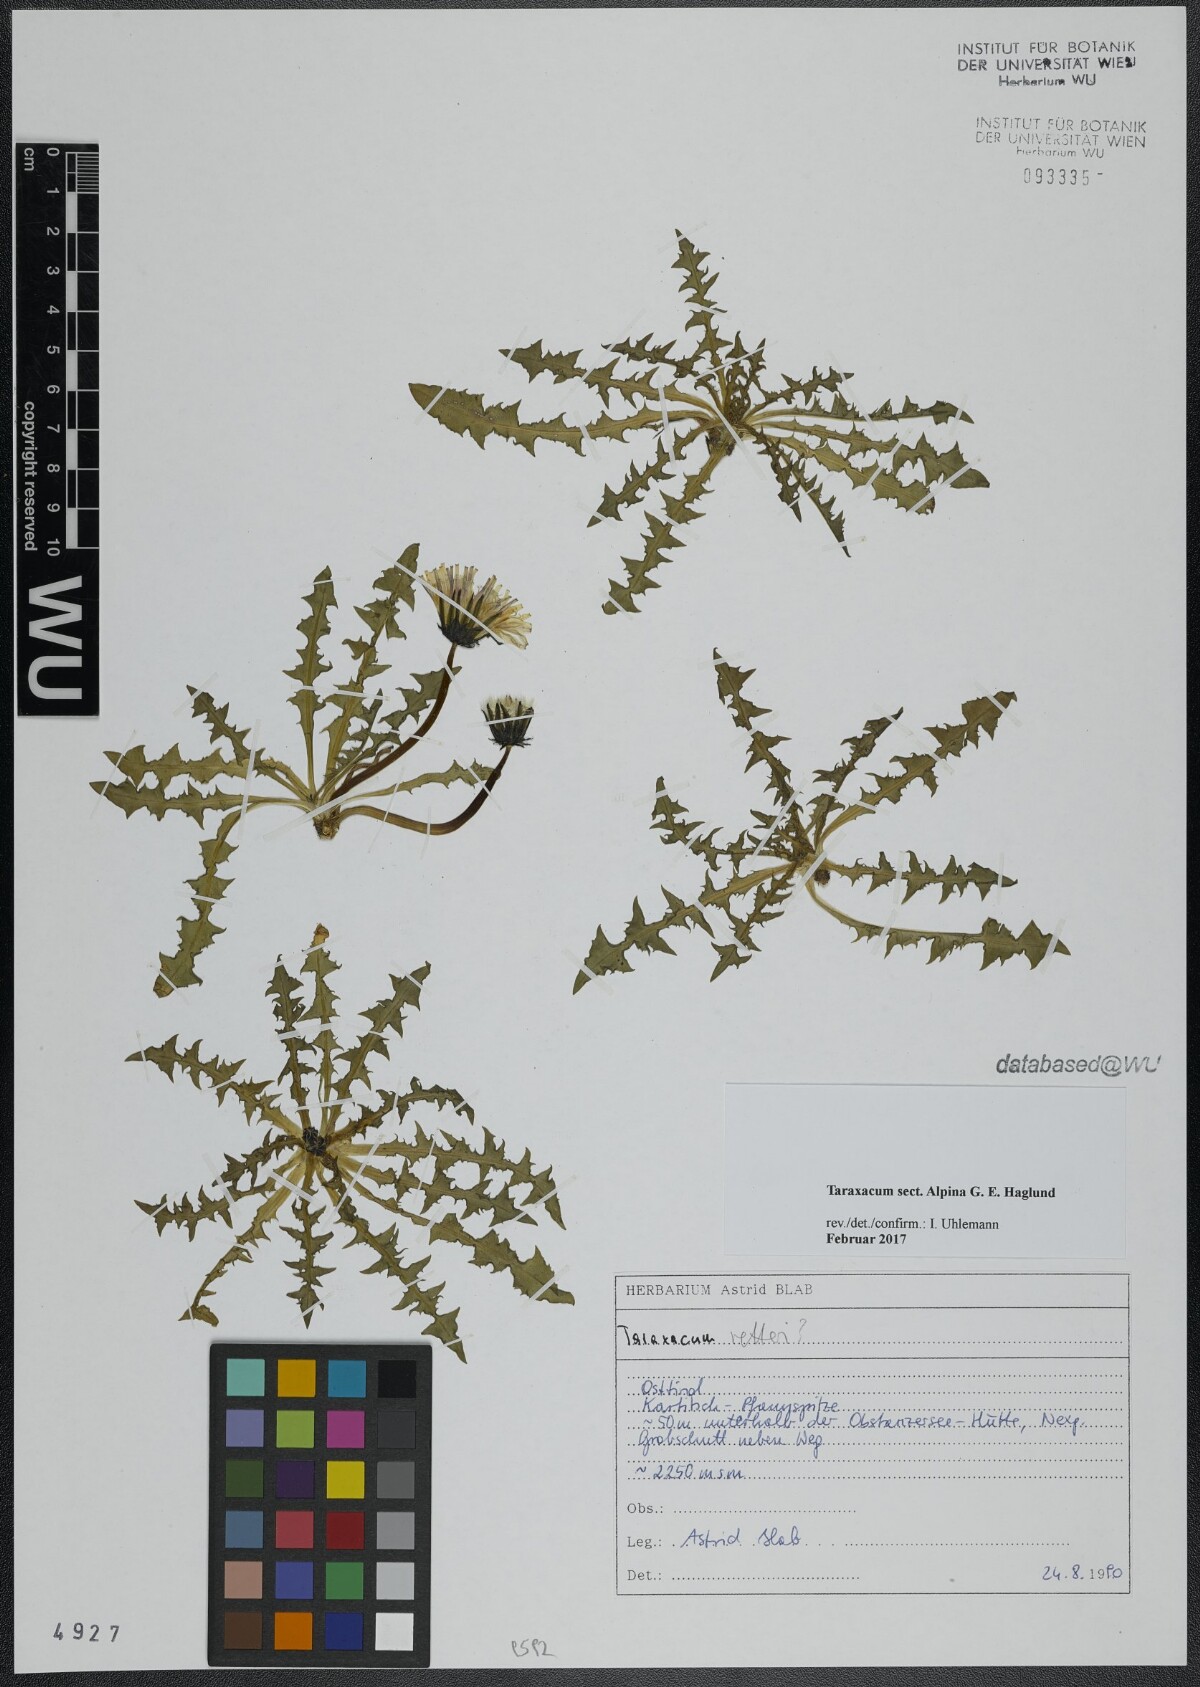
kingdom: Plantae
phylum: Tracheophyta
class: Magnoliopsida
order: Asterales
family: Asteraceae
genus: Taraxacum
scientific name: Taraxacum
